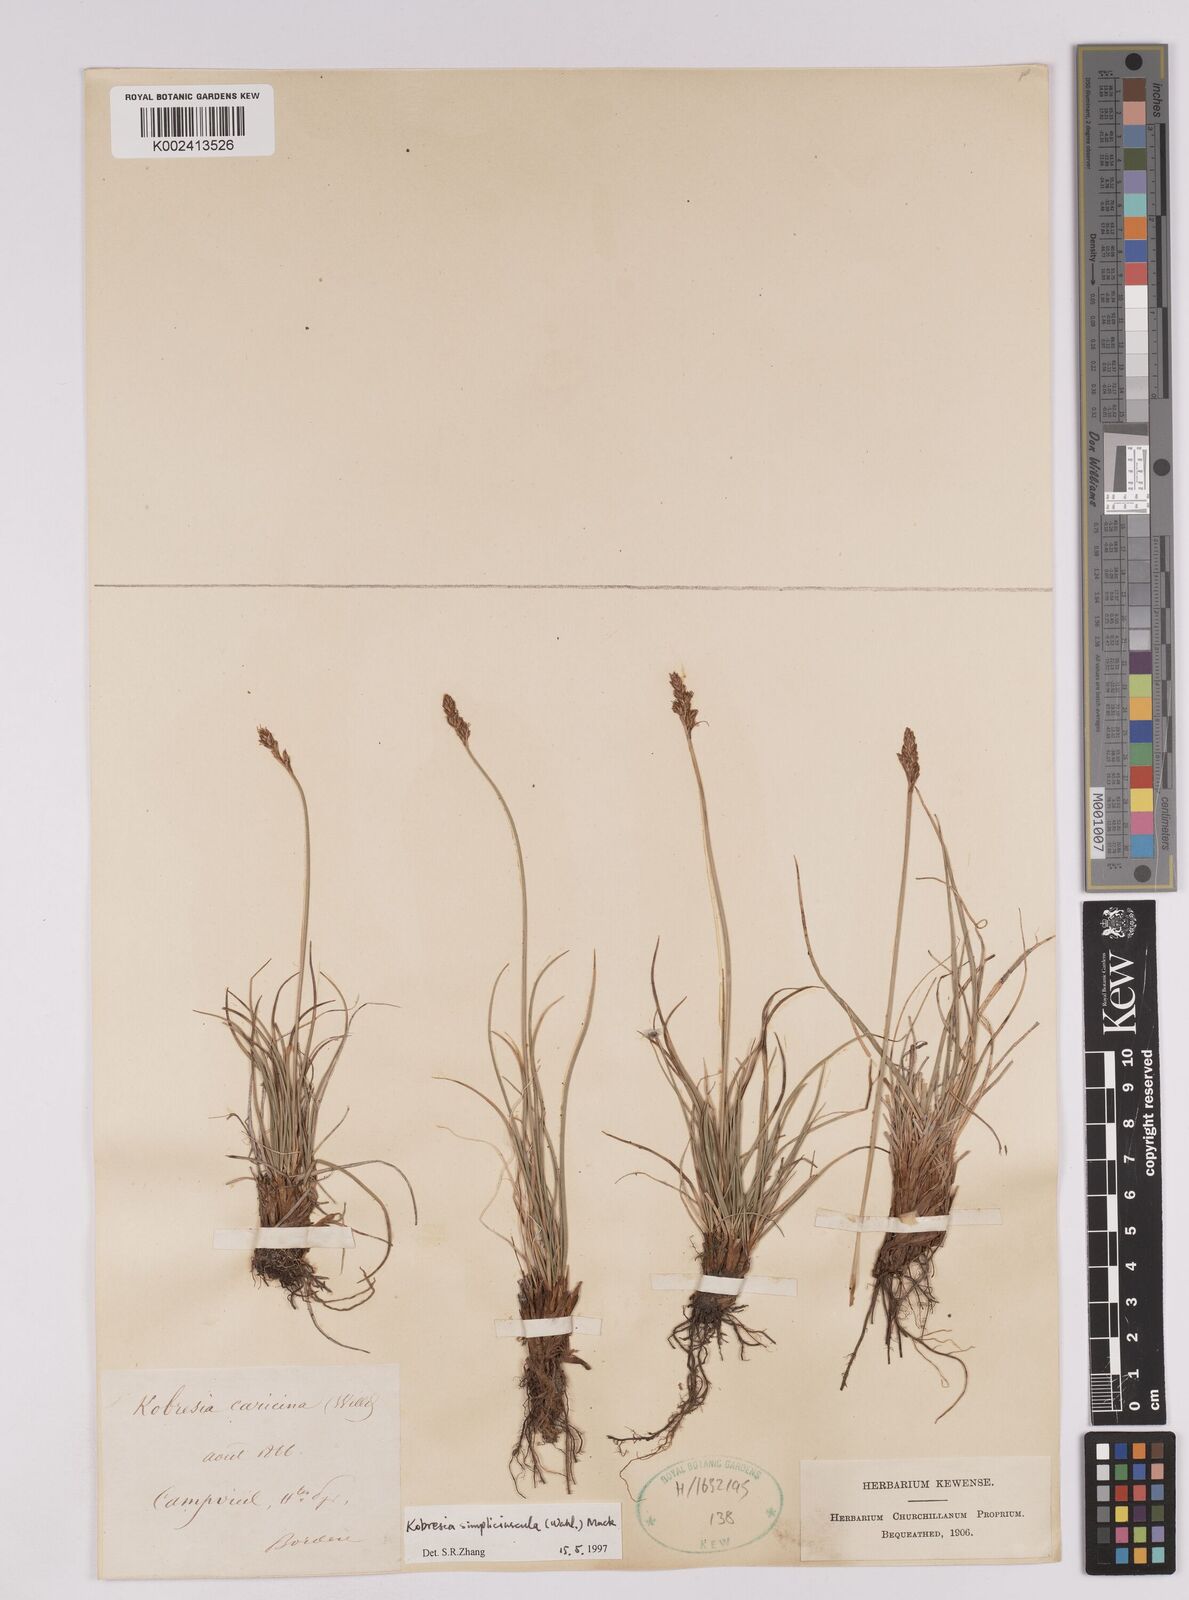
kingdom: Plantae
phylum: Tracheophyta
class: Liliopsida
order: Poales
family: Cyperaceae
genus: Carex
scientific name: Carex simpliciuscula
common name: Simple bog sedge
